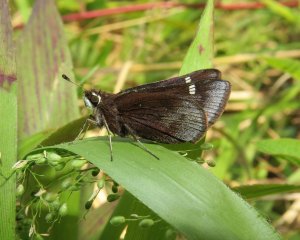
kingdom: Animalia
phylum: Arthropoda
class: Insecta
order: Lepidoptera
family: Hesperiidae
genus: Atrytonopsis
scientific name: Atrytonopsis hianna
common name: Dusted Skipper
